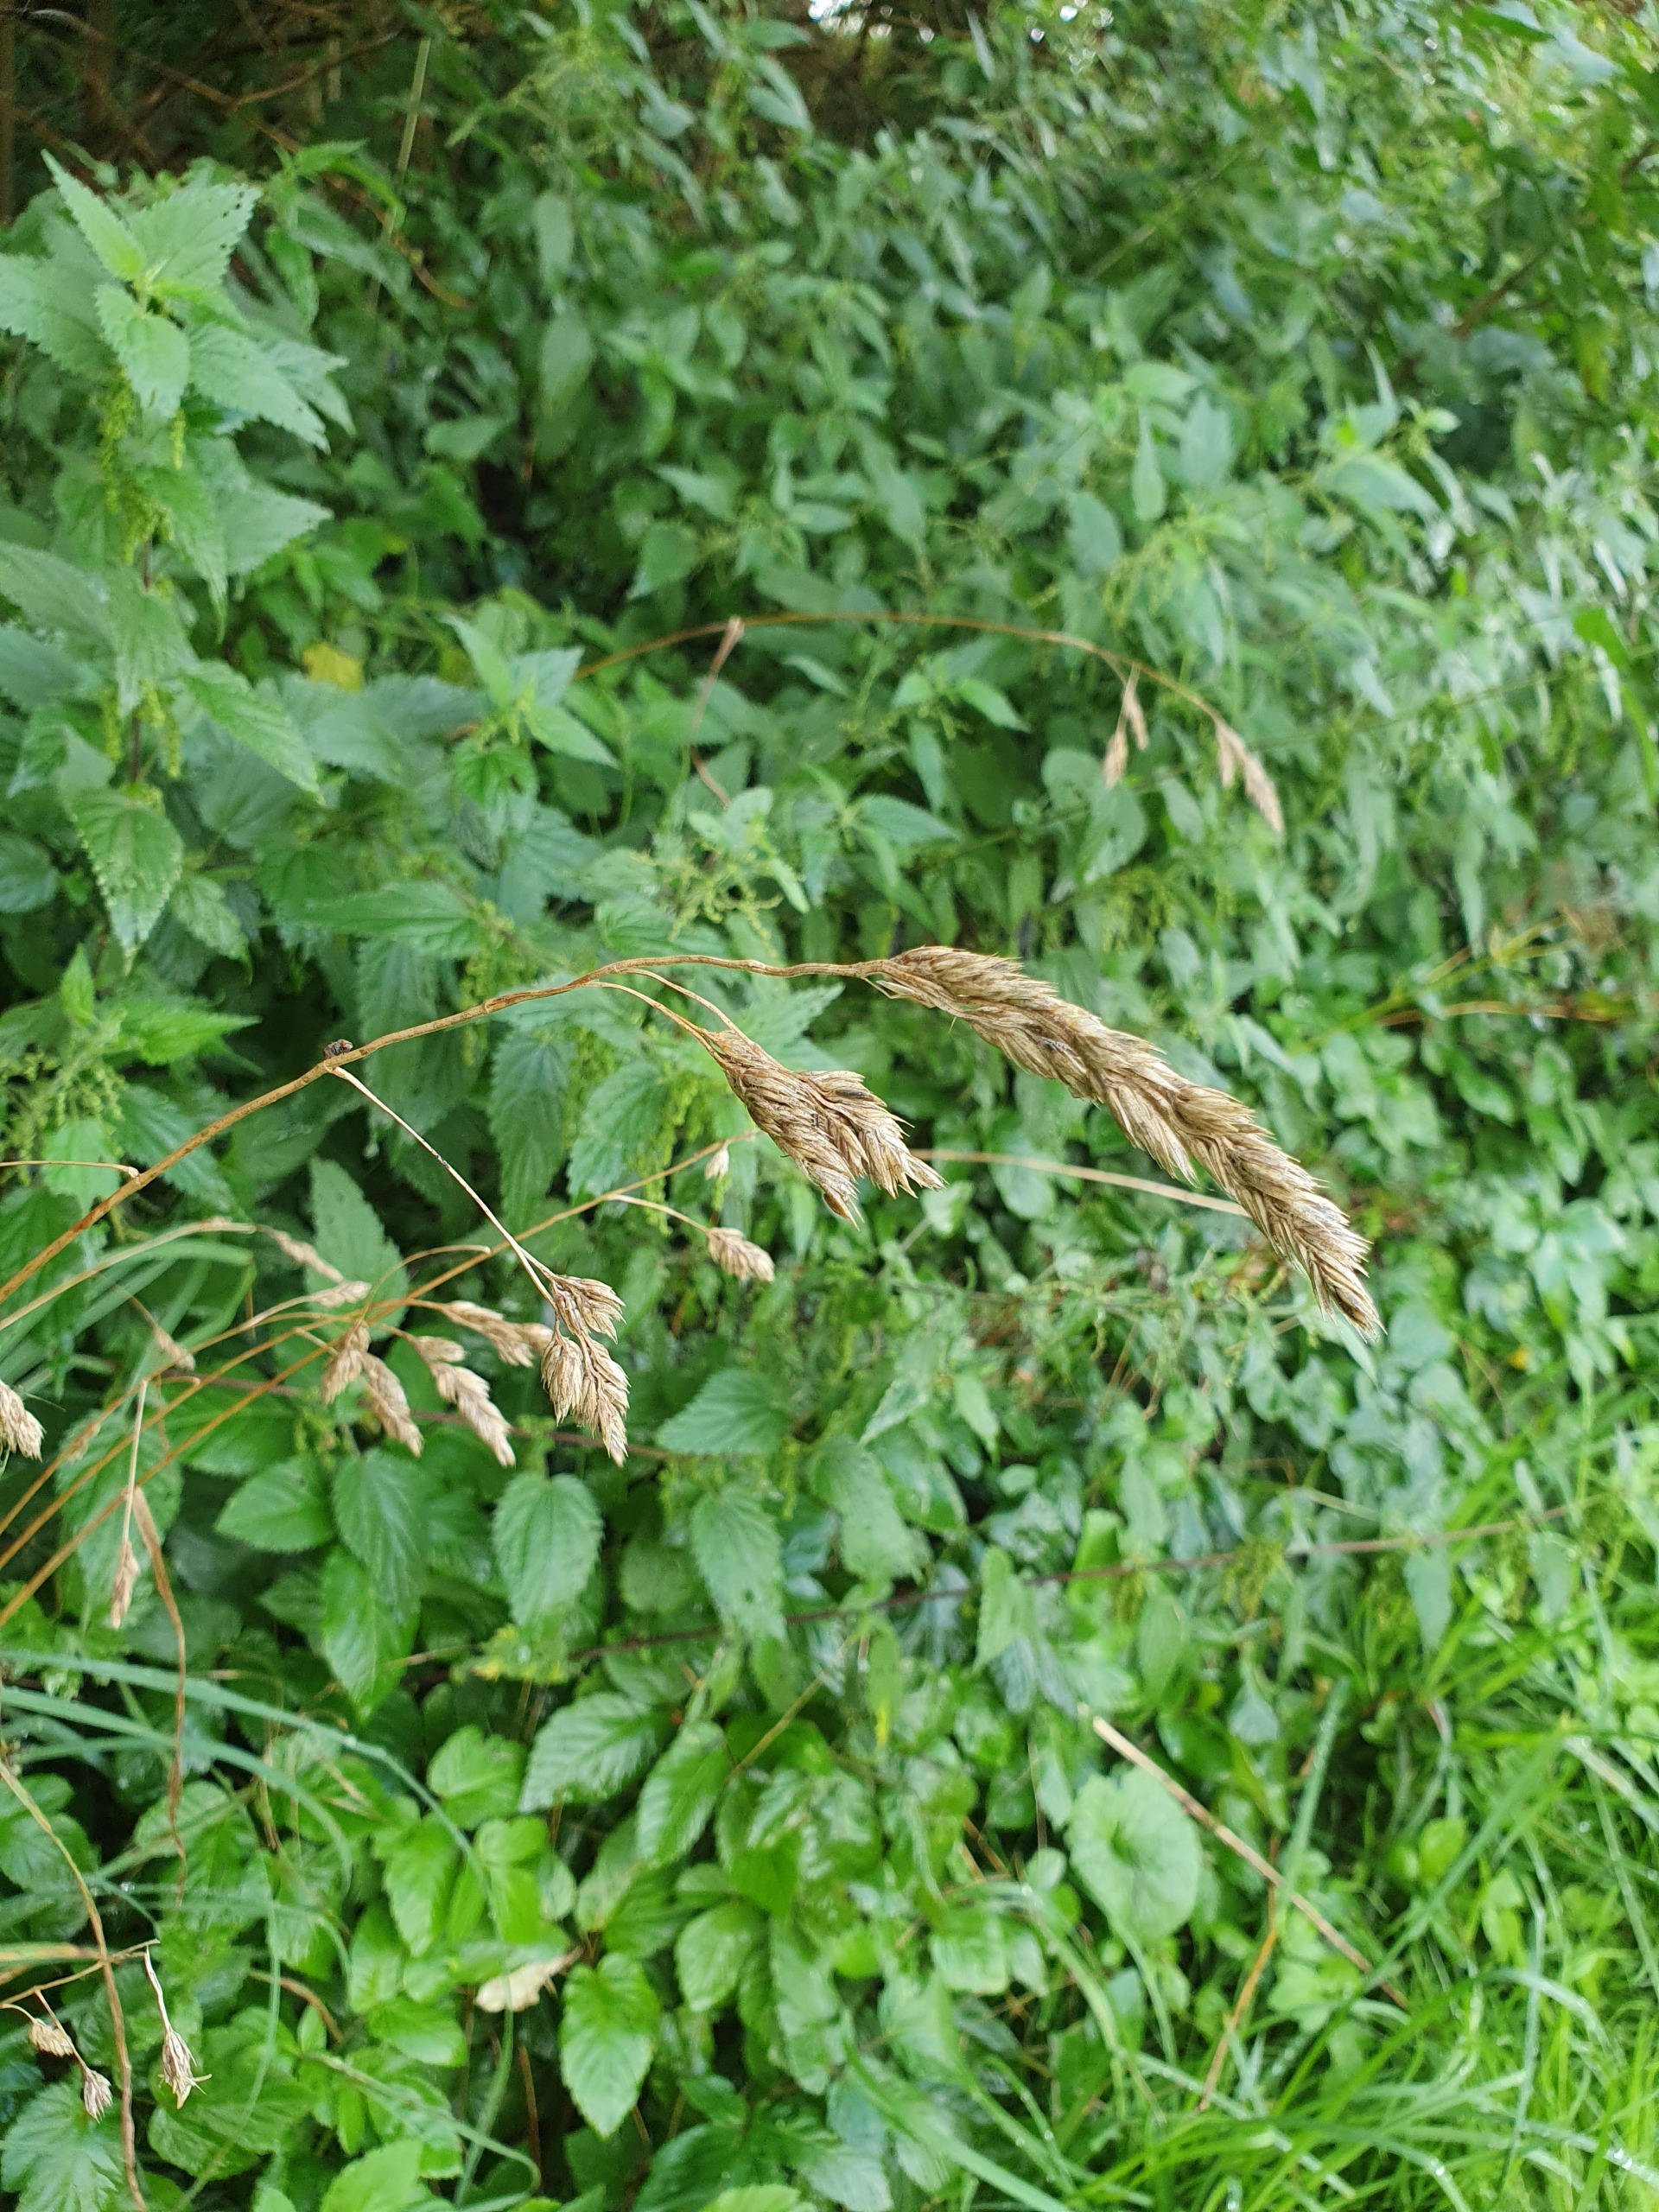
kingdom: Plantae
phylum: Tracheophyta
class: Liliopsida
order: Poales
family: Poaceae
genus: Dactylis
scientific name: Dactylis glomerata
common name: Almindelig hundegræs
